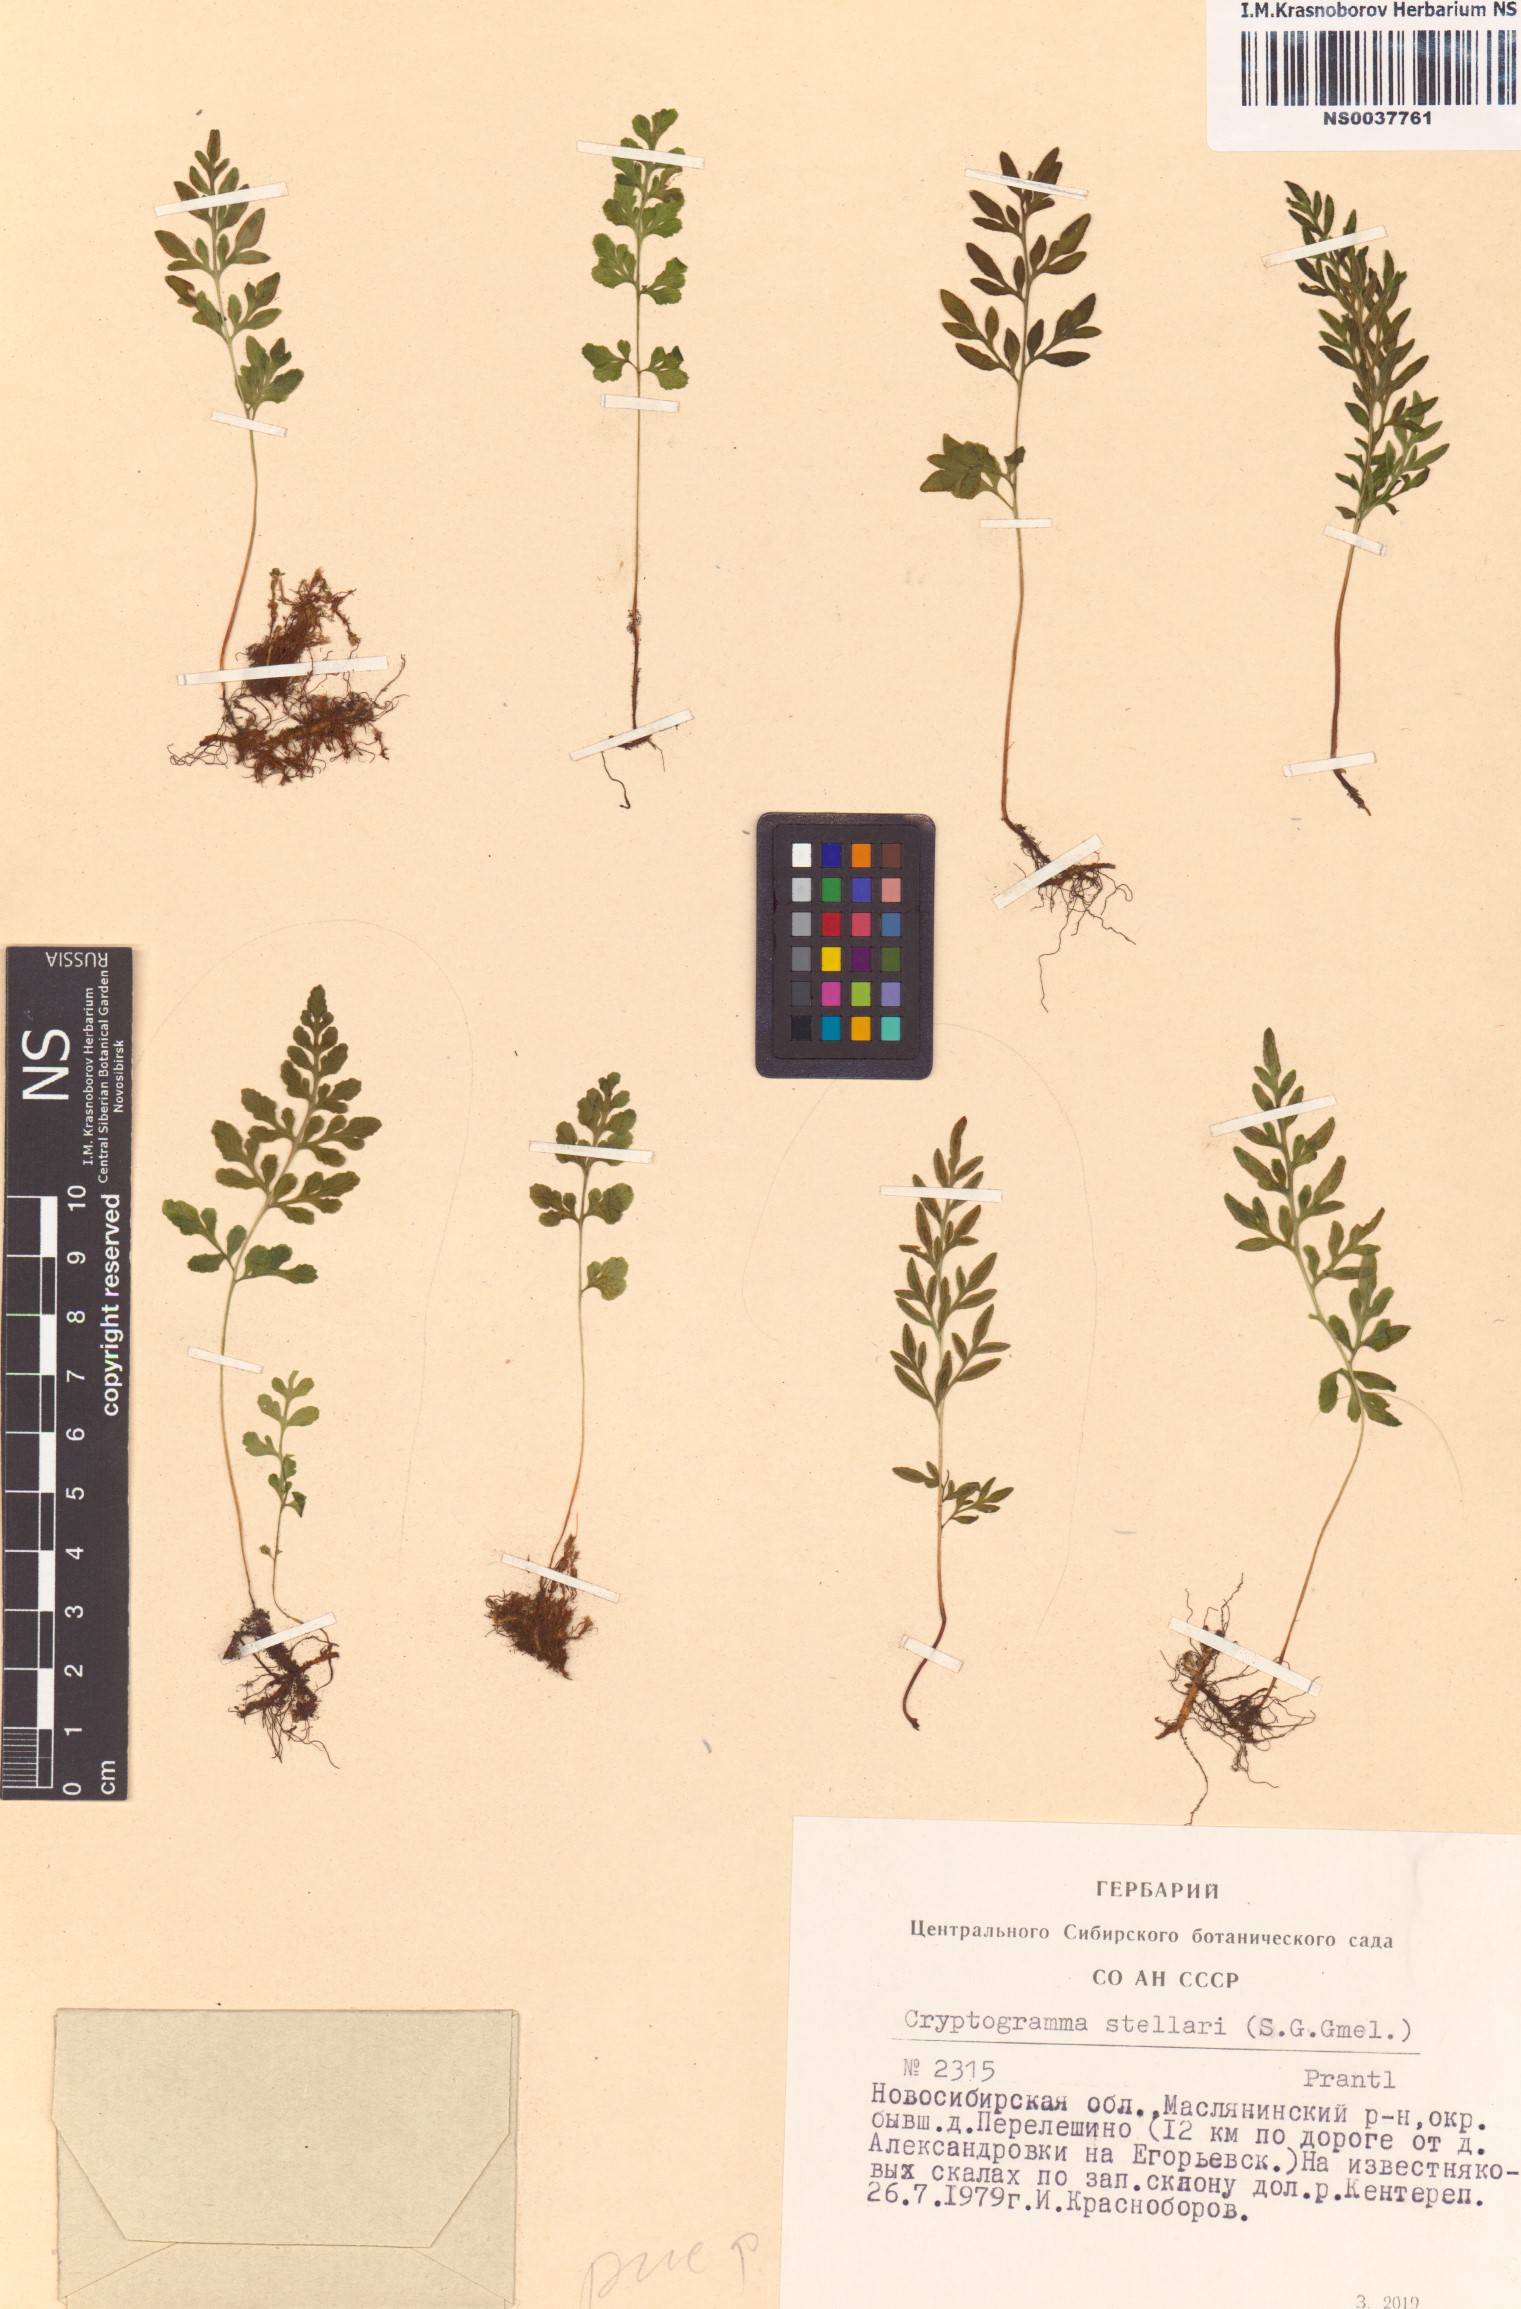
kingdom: Plantae
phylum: Tracheophyta
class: Polypodiopsida
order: Polypodiales
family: Pteridaceae
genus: Cryptogramma
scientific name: Cryptogramma stelleri
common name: Cliff-brake
